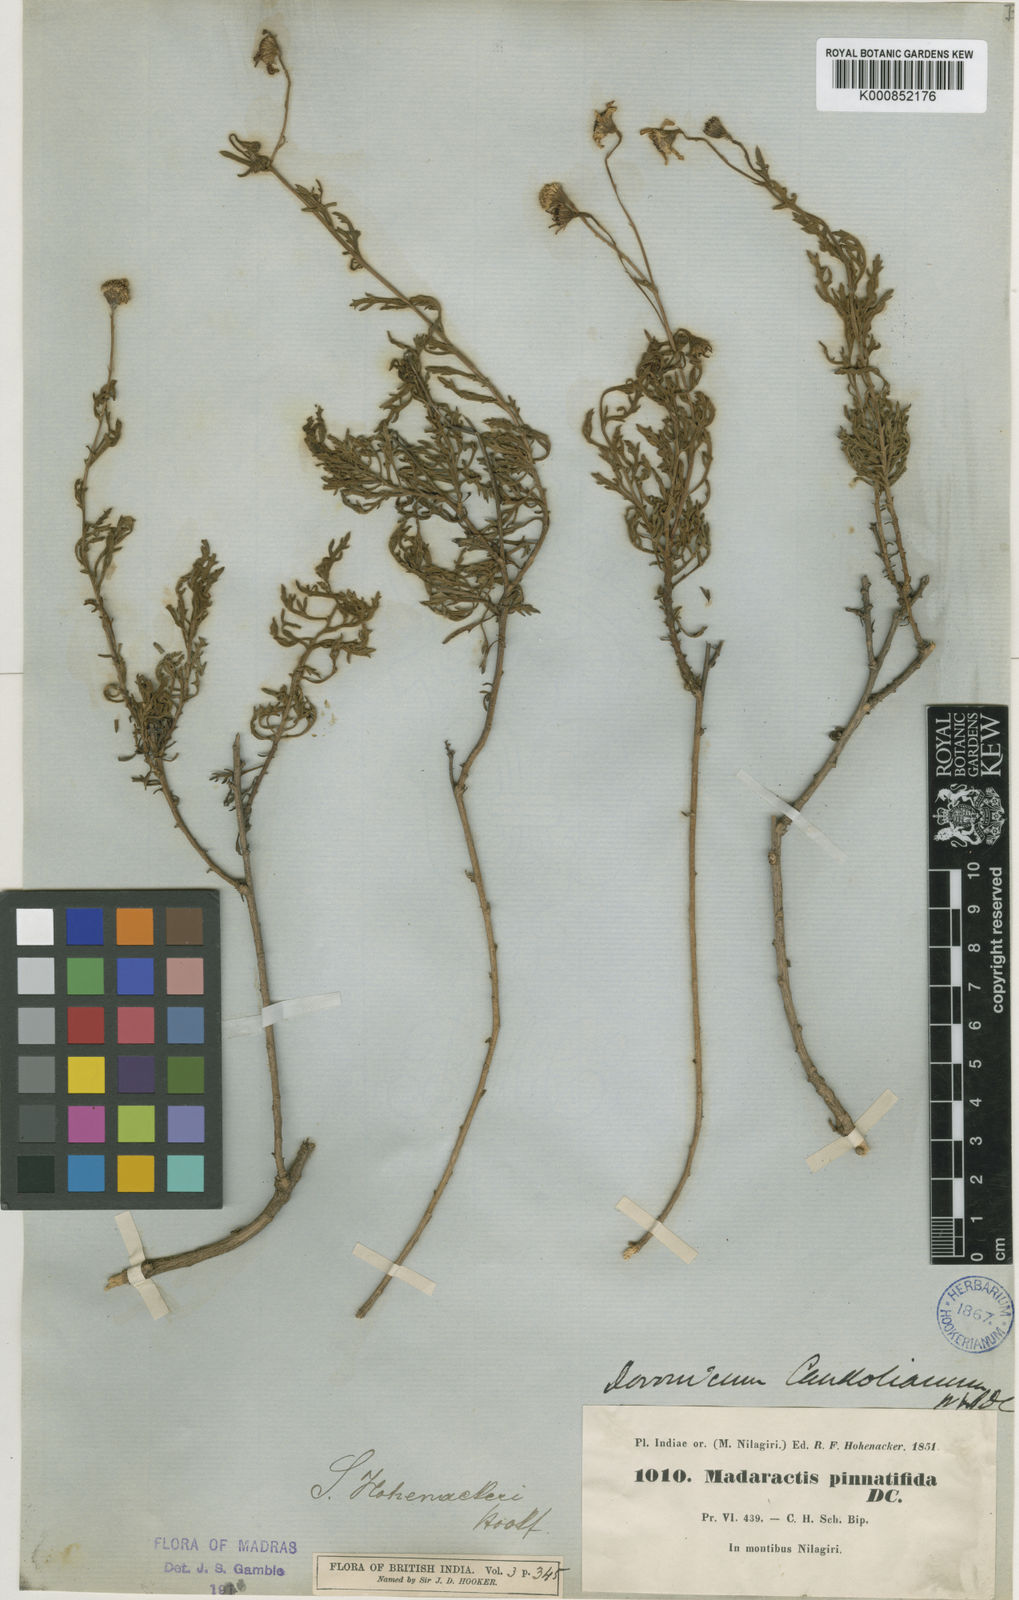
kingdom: Plantae
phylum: Tracheophyta
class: Magnoliopsida
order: Asterales
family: Asteraceae
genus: Senecio
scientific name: Senecio madrasensis
